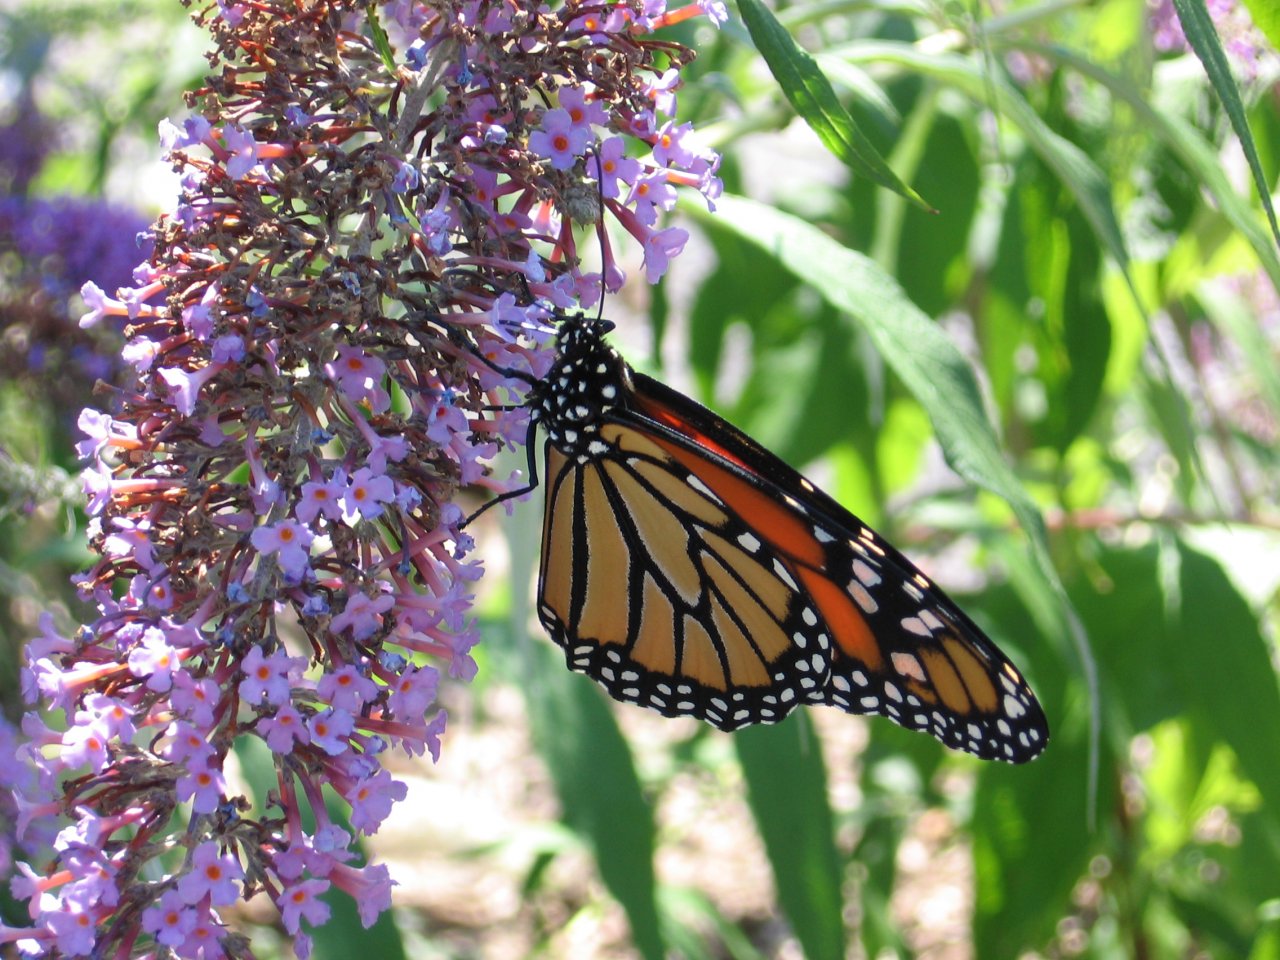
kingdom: Animalia
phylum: Arthropoda
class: Insecta
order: Lepidoptera
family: Nymphalidae
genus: Danaus
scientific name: Danaus plexippus
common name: Monarch
